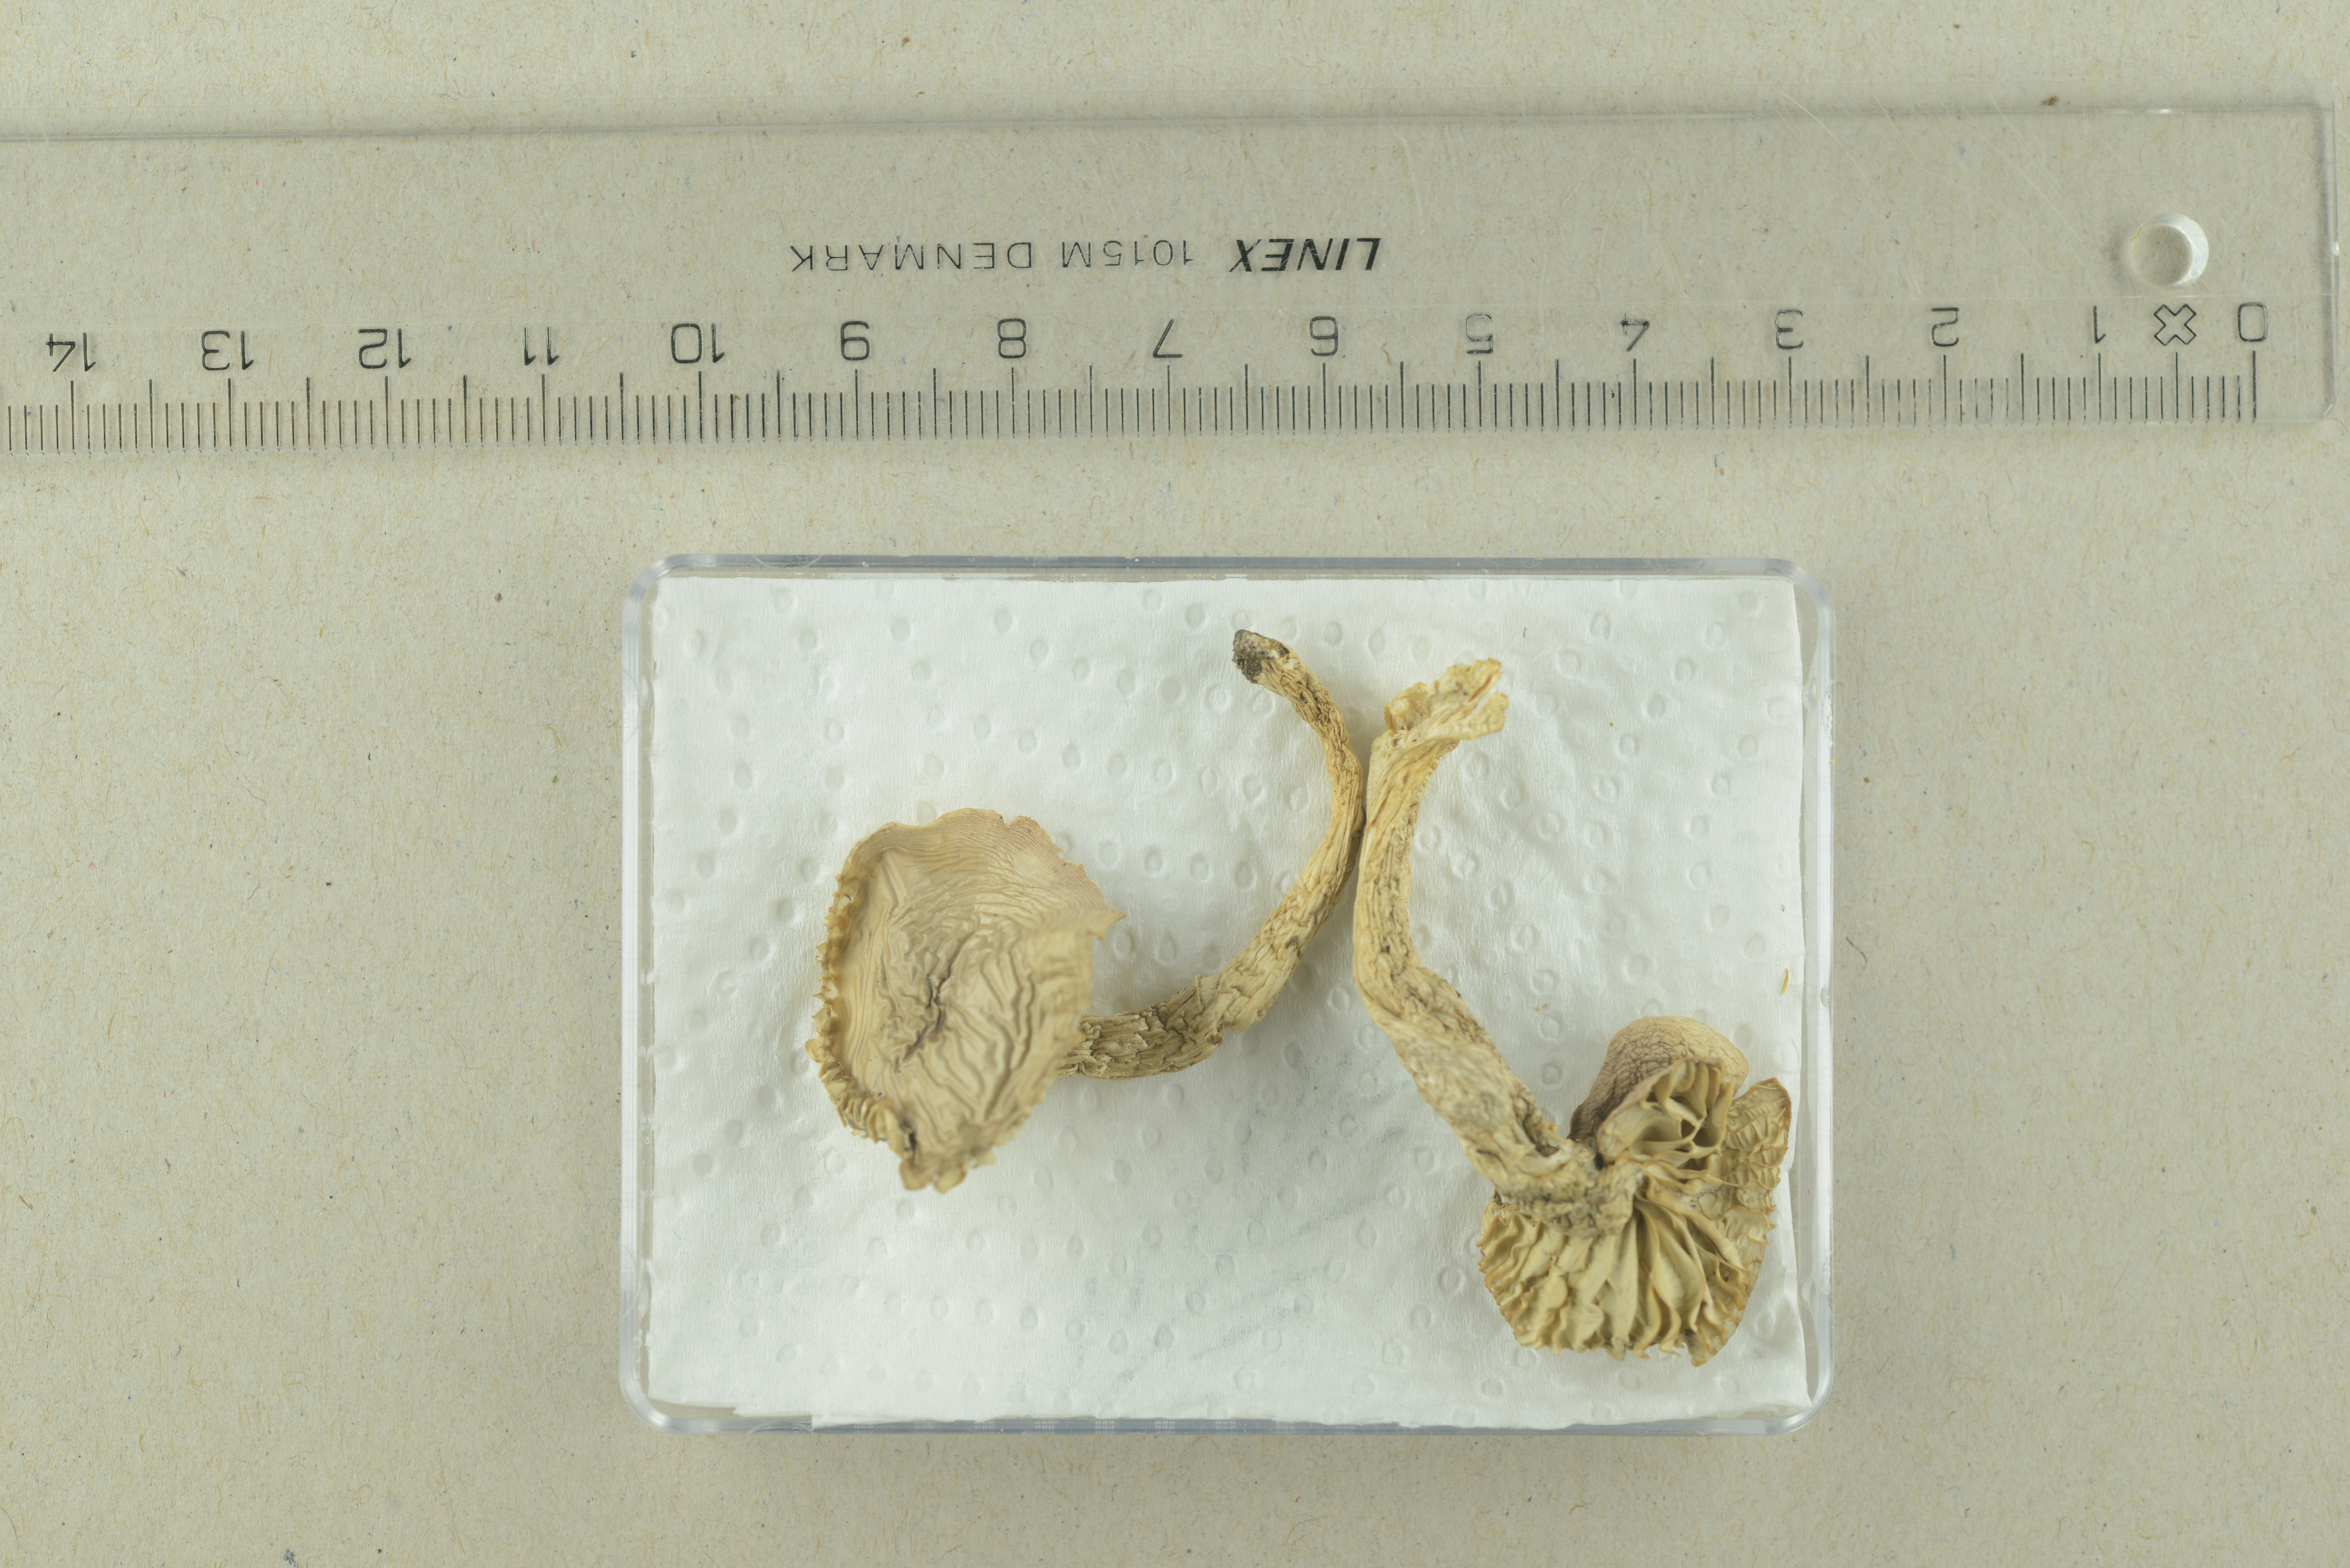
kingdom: Fungi
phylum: Basidiomycota
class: Agaricomycetes
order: Agaricales
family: Hygrophoraceae
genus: Cuphophyllus
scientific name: Cuphophyllus flavipes
